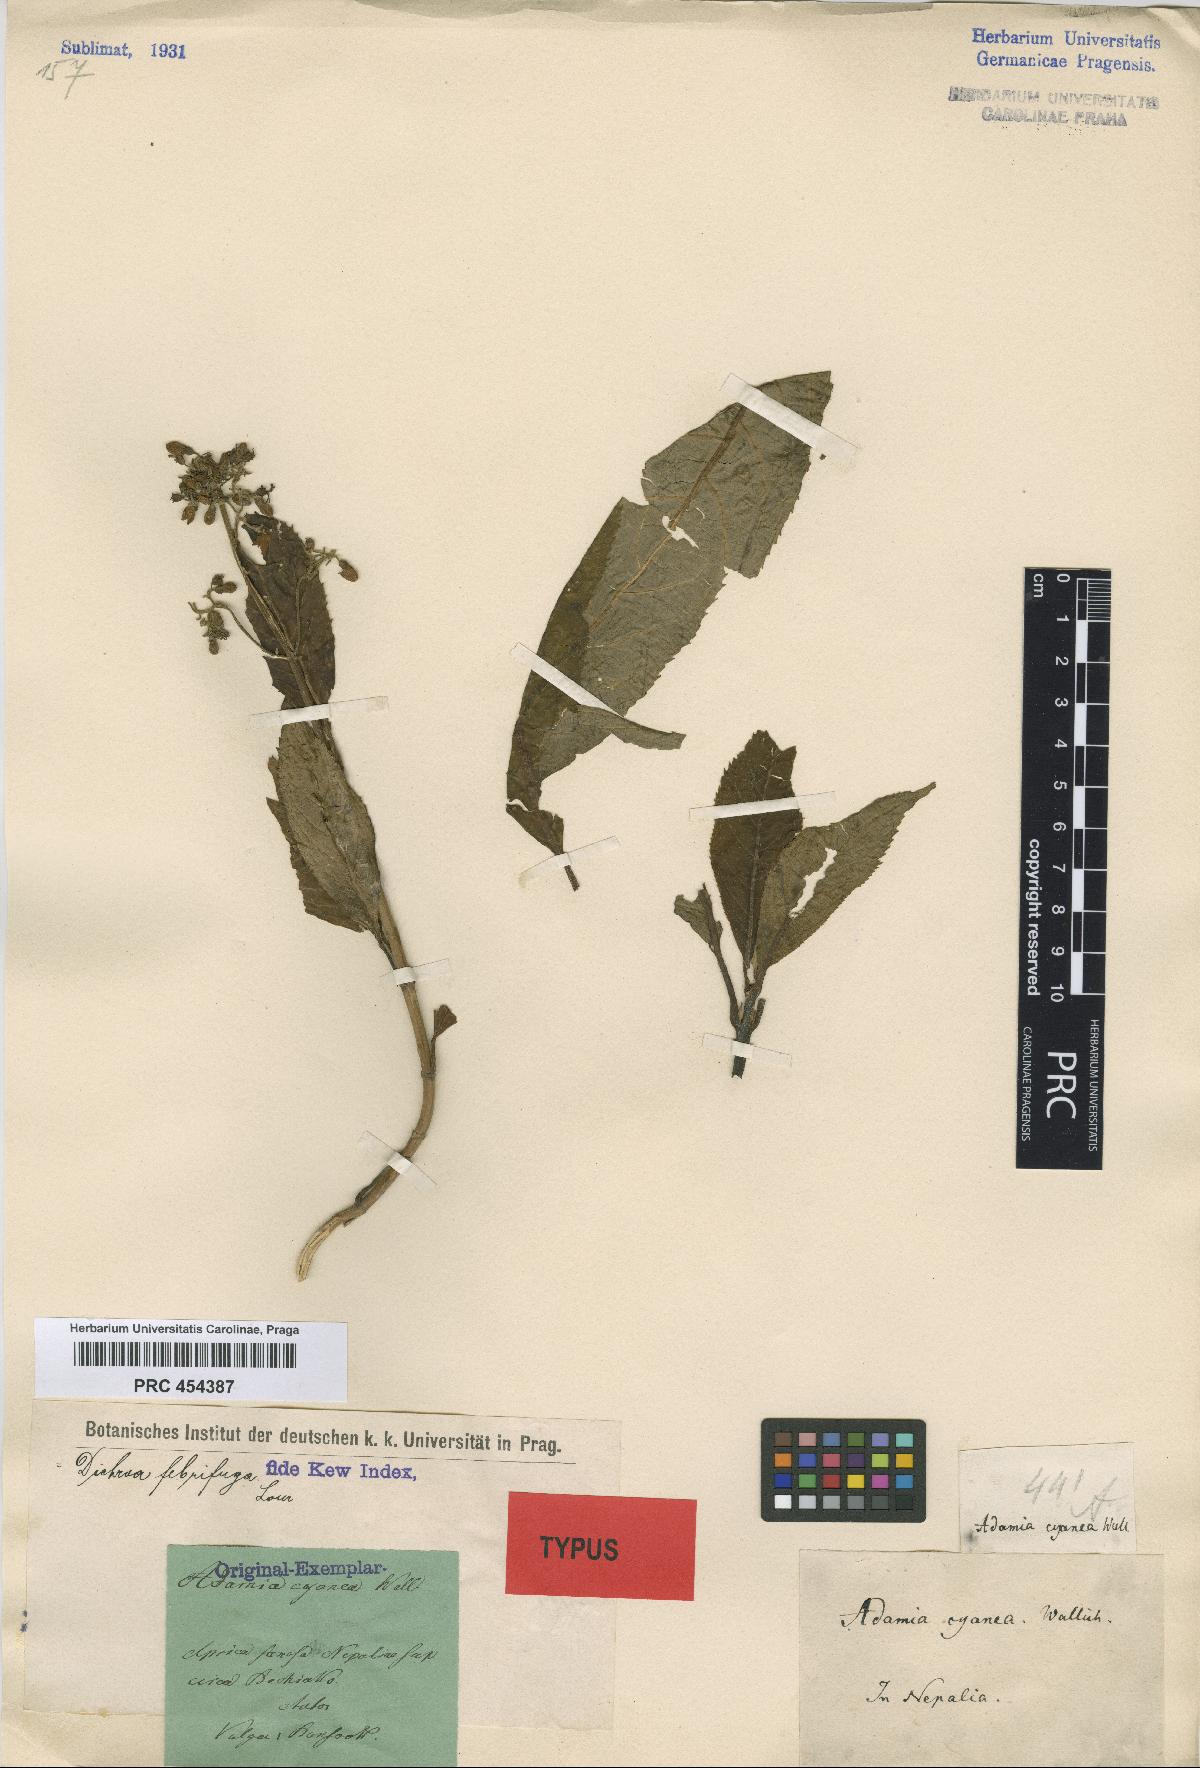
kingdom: Plantae
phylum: Tracheophyta
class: Magnoliopsida
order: Cornales
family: Hydrangeaceae
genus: Hydrangea
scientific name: Hydrangea febrifuga
